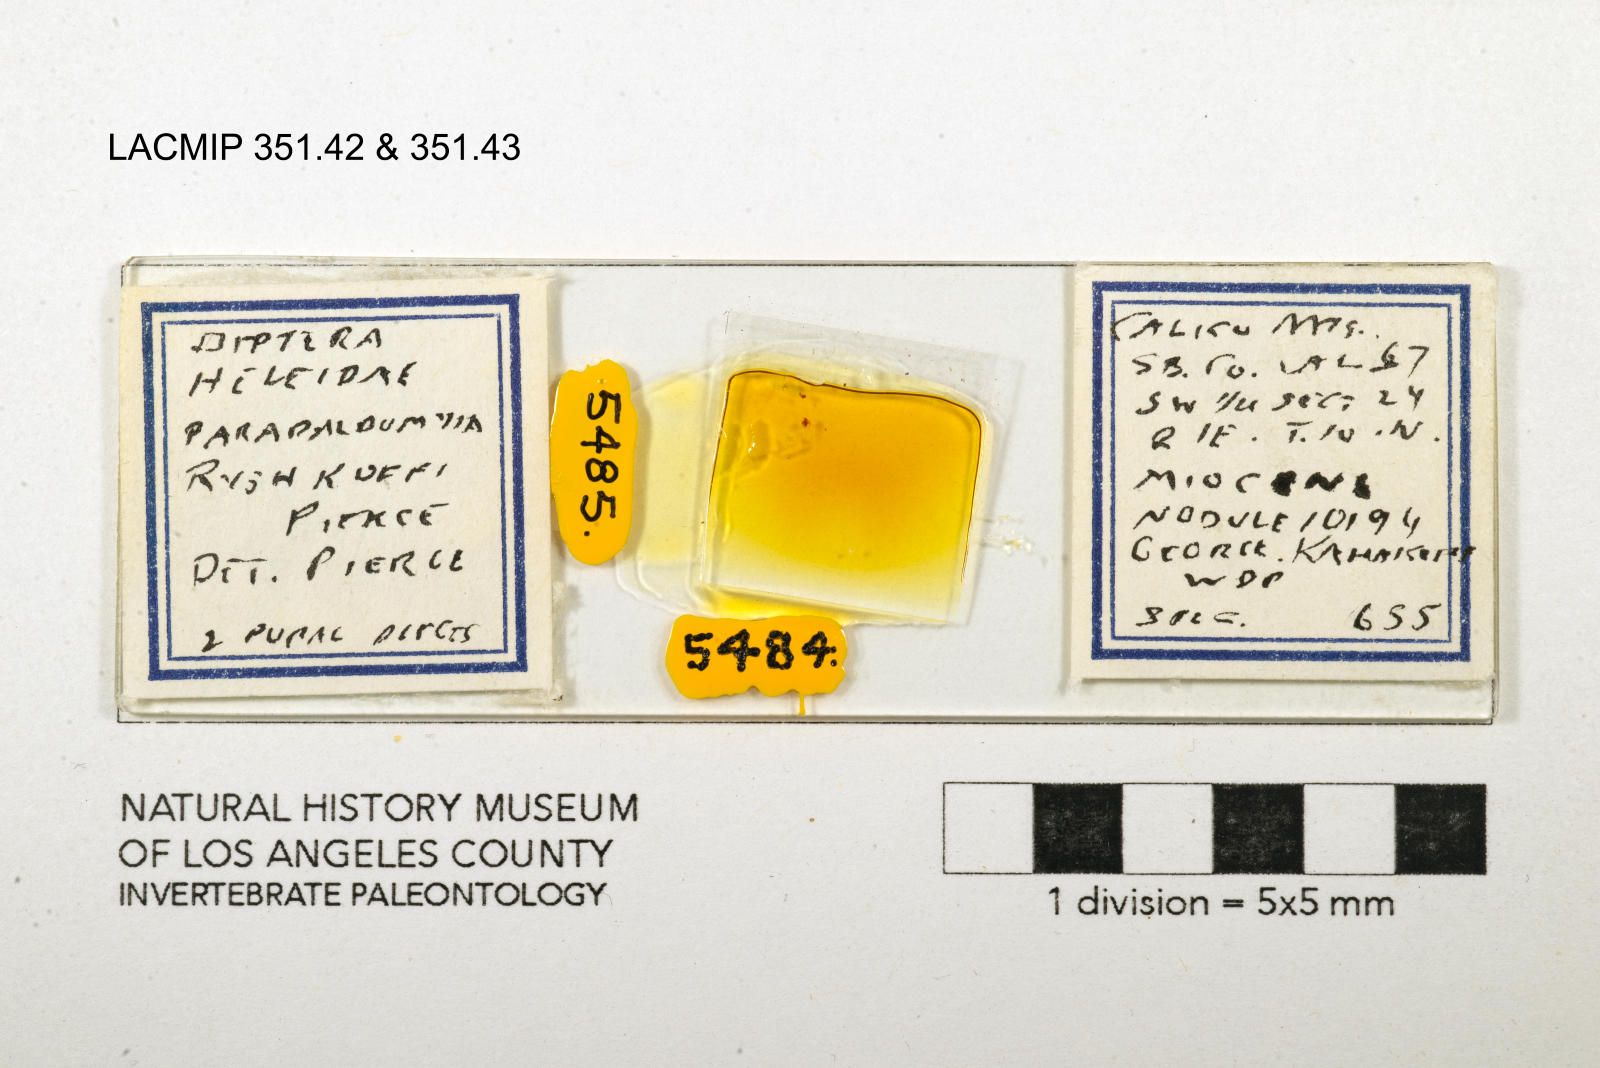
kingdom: Animalia
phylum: Arthropoda
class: Insecta
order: Diptera
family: Ceratopogonidae
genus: Palpomyia
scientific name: Palpomyia ryshkoffi
